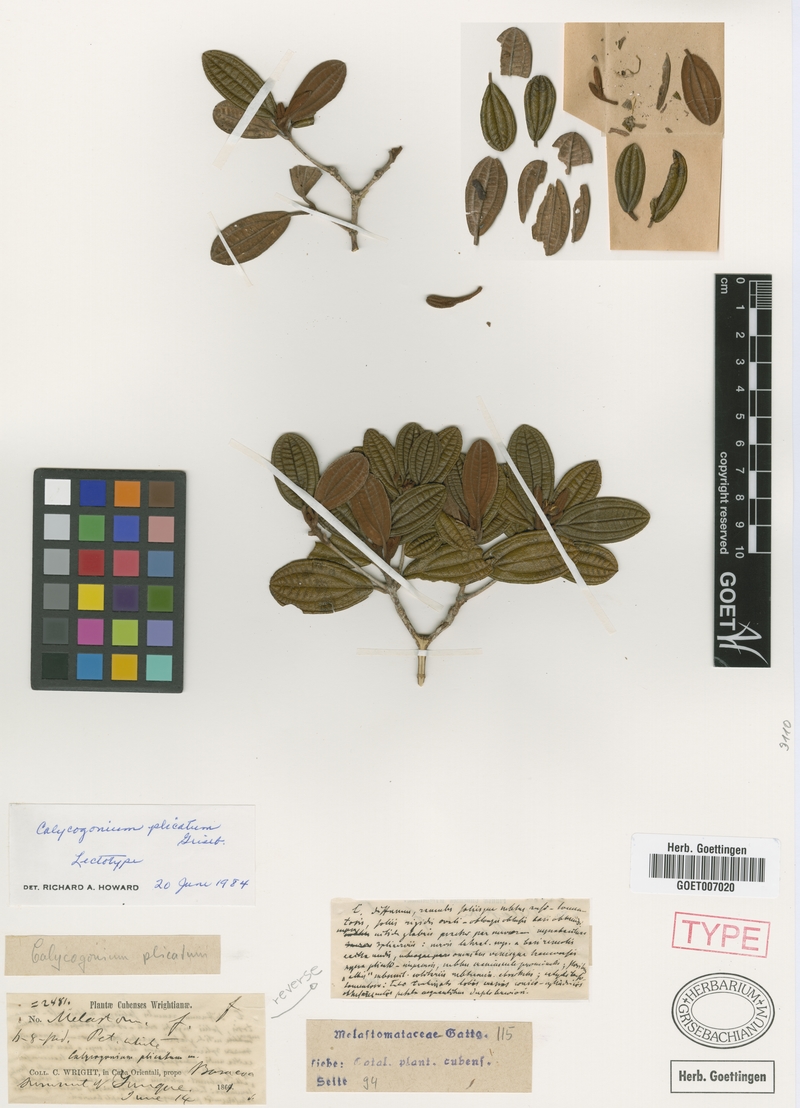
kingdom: Plantae
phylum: Tracheophyta
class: Magnoliopsida
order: Myrtales
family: Melastomataceae
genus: Miconia
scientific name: Miconia plicata
